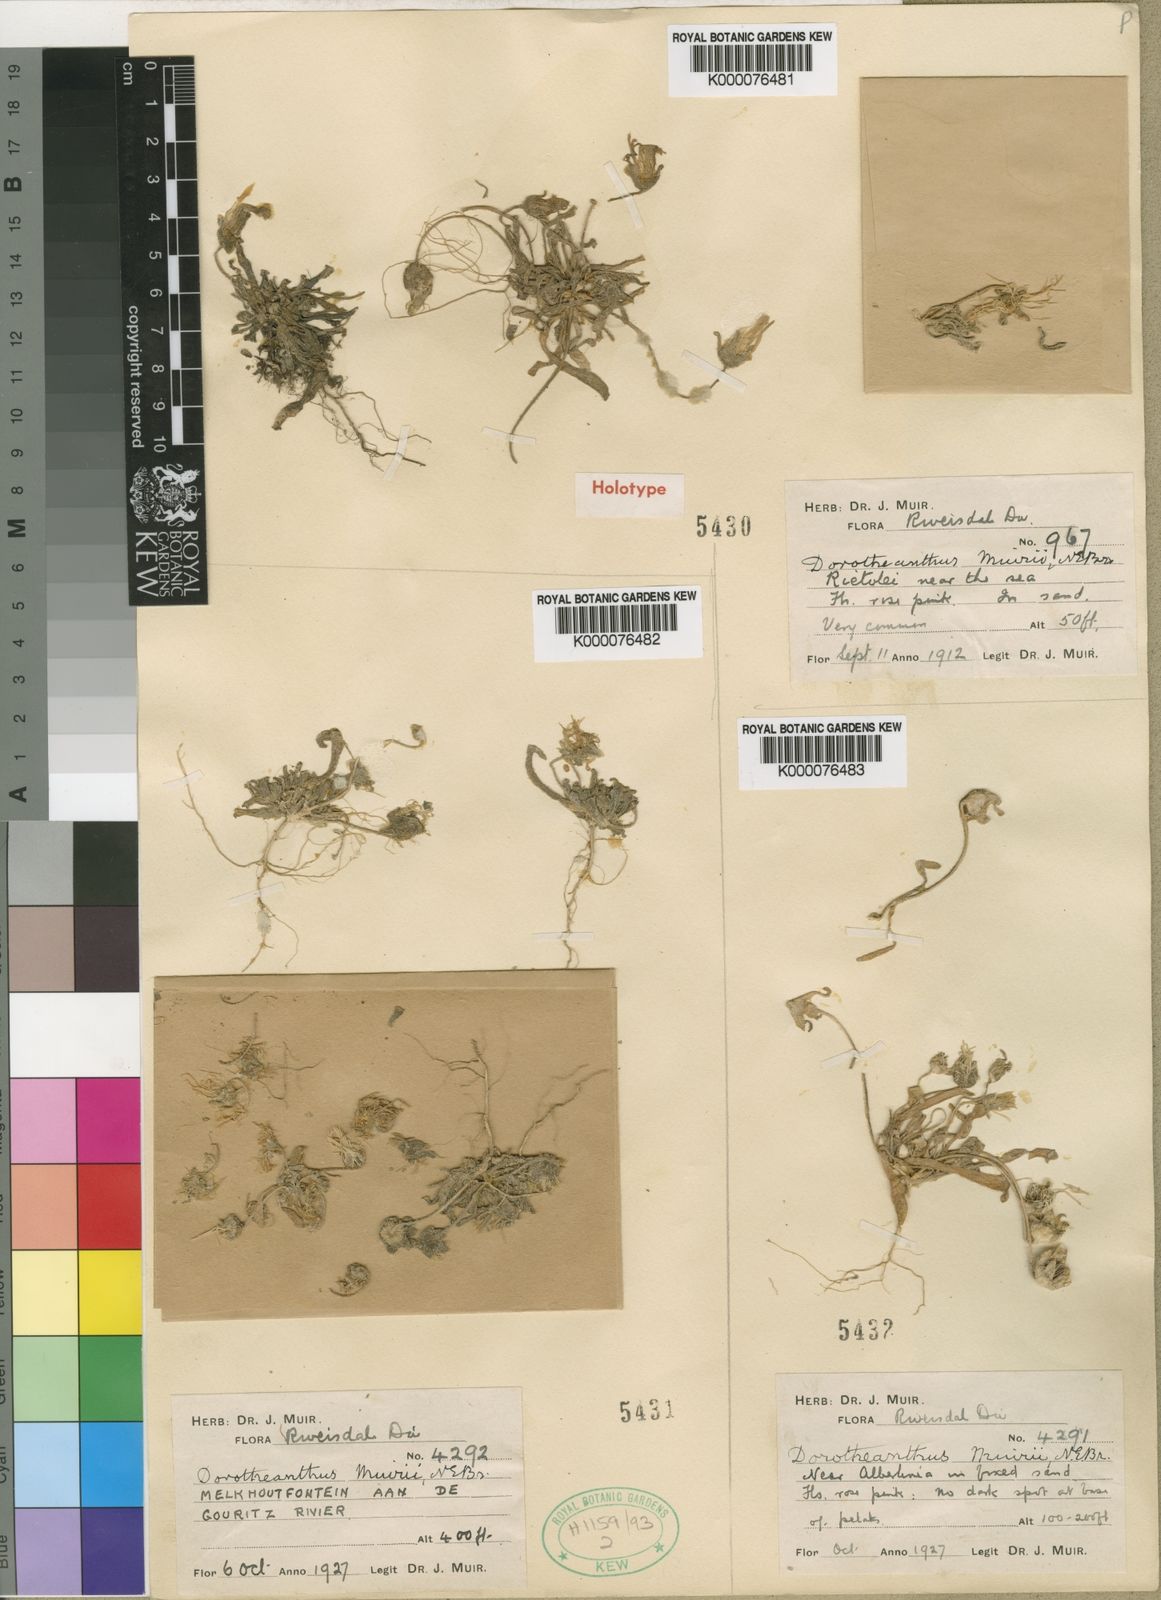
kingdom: Plantae
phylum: Tracheophyta
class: Magnoliopsida
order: Caryophyllales
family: Aizoaceae
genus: Cleretum
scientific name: Cleretum bellidiforme
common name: Livingstone daisy
